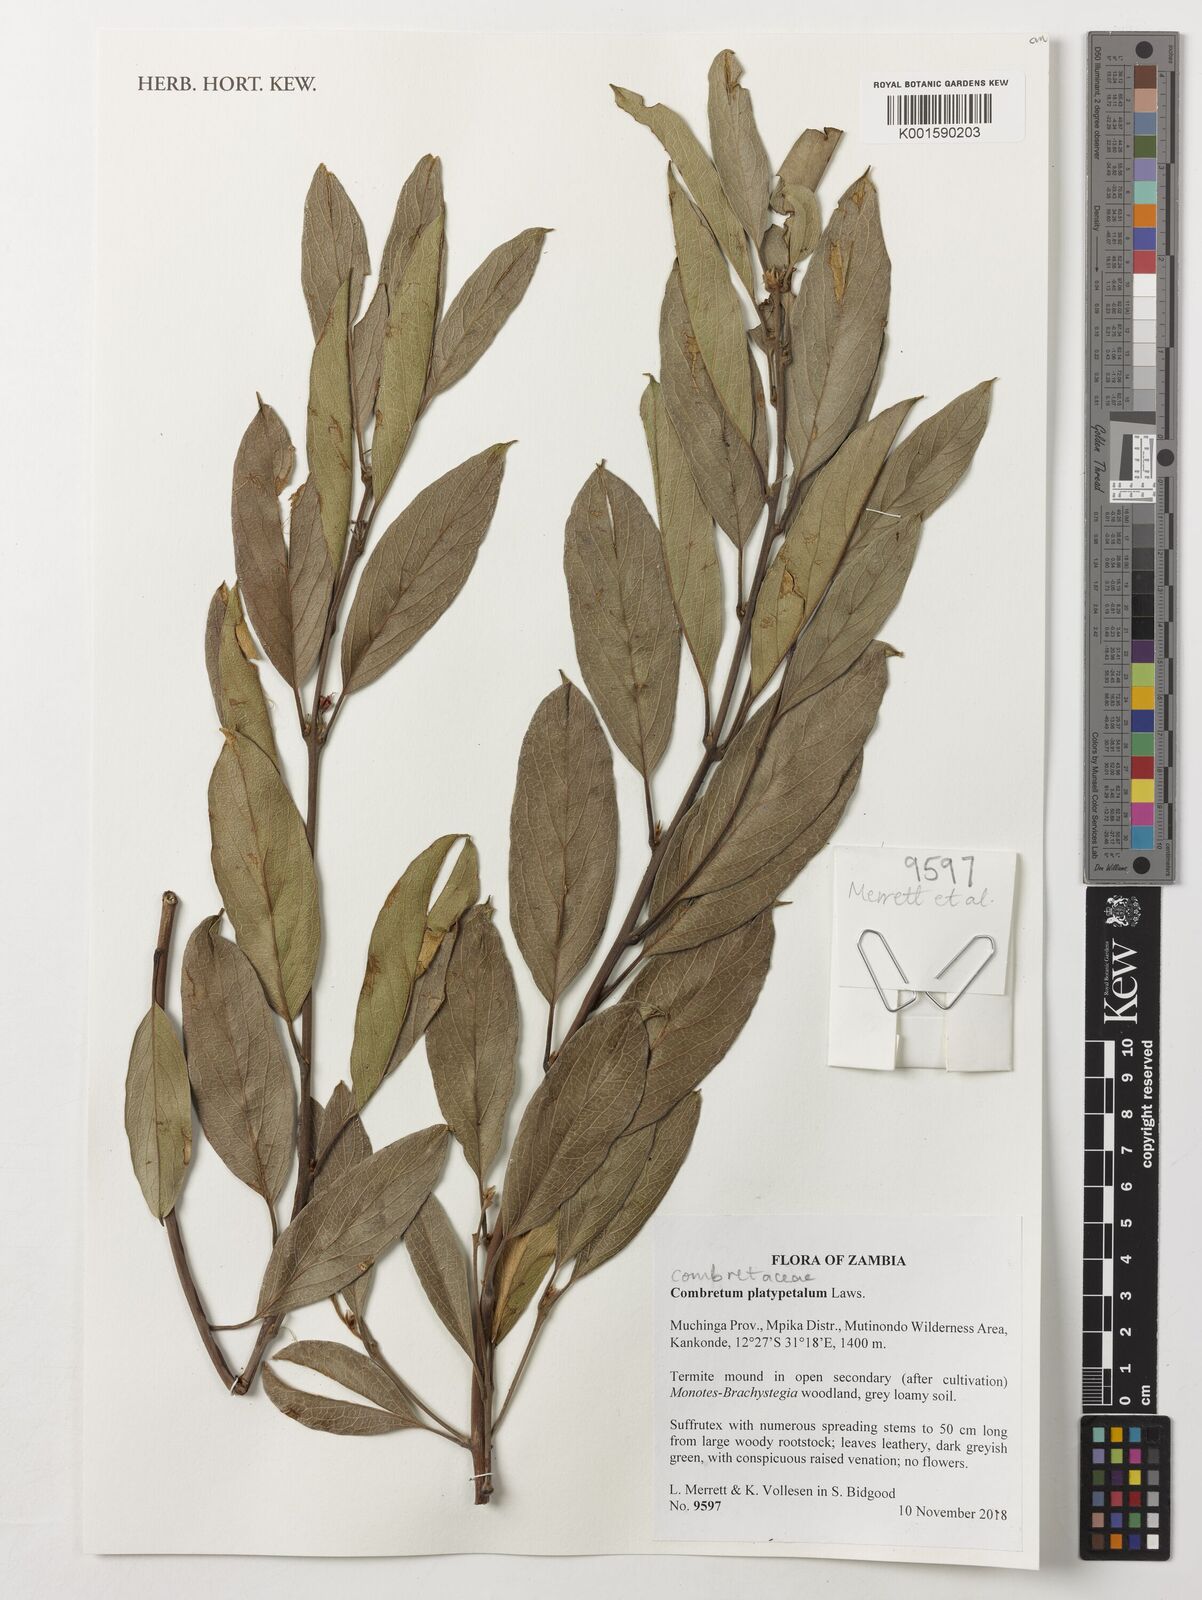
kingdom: Plantae
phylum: Tracheophyta
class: Magnoliopsida
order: Myrtales
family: Combretaceae
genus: Combretum
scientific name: Combretum platypetalum
